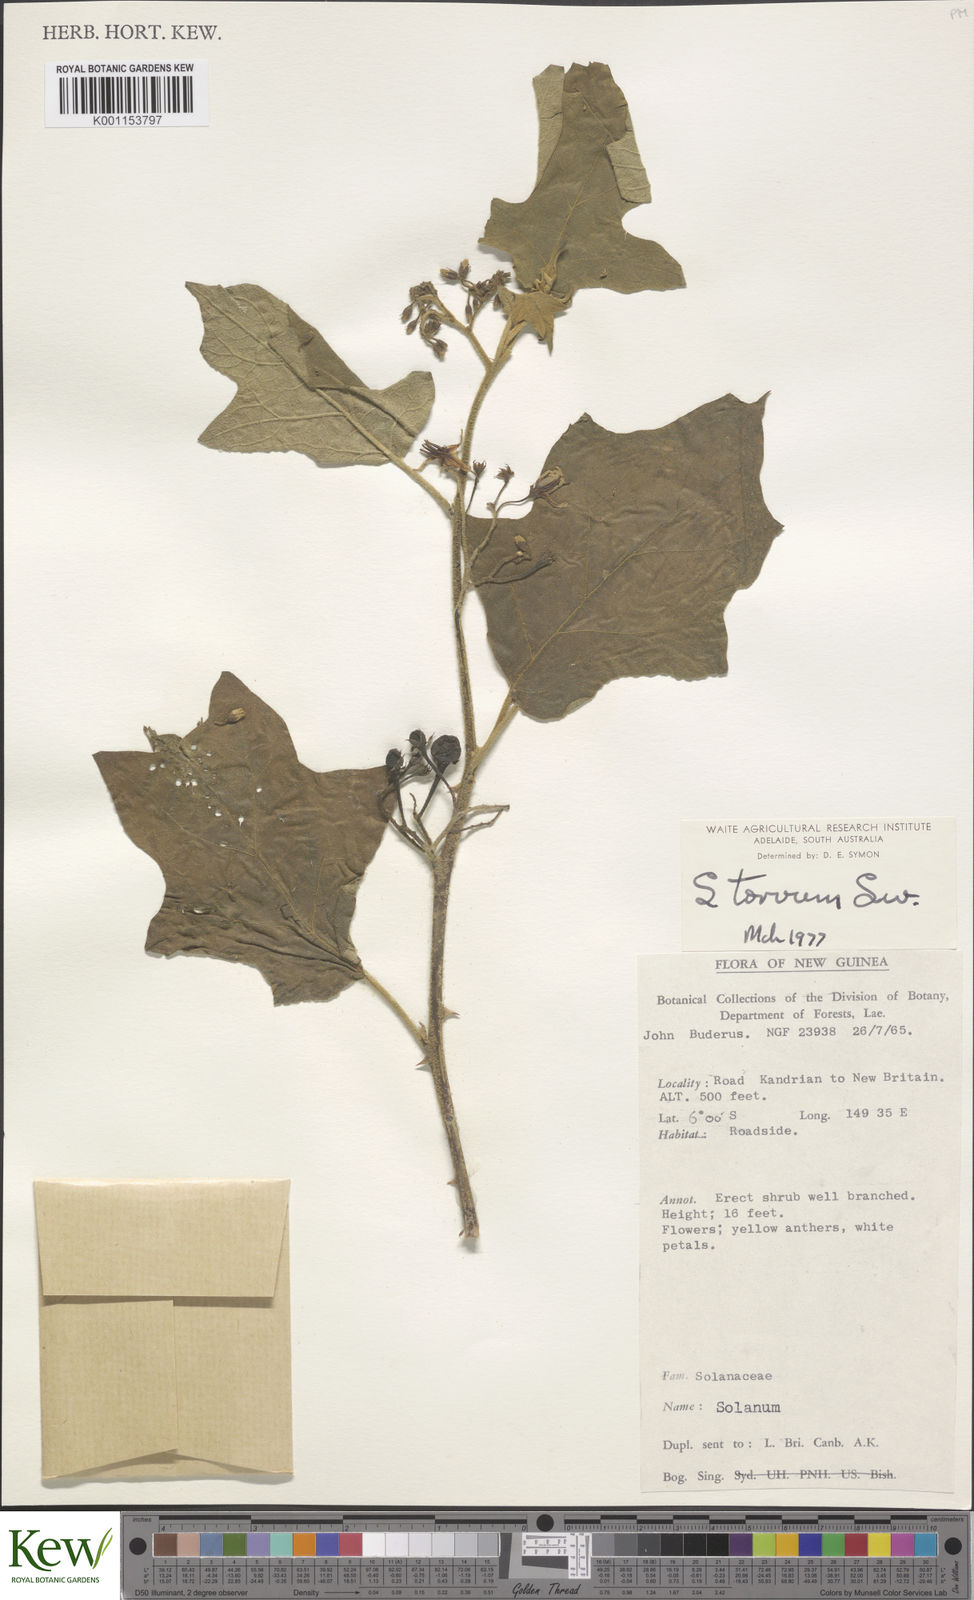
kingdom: Plantae
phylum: Tracheophyta
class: Magnoliopsida
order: Solanales
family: Solanaceae
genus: Solanum
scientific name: Solanum torvum
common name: Turkey berry
